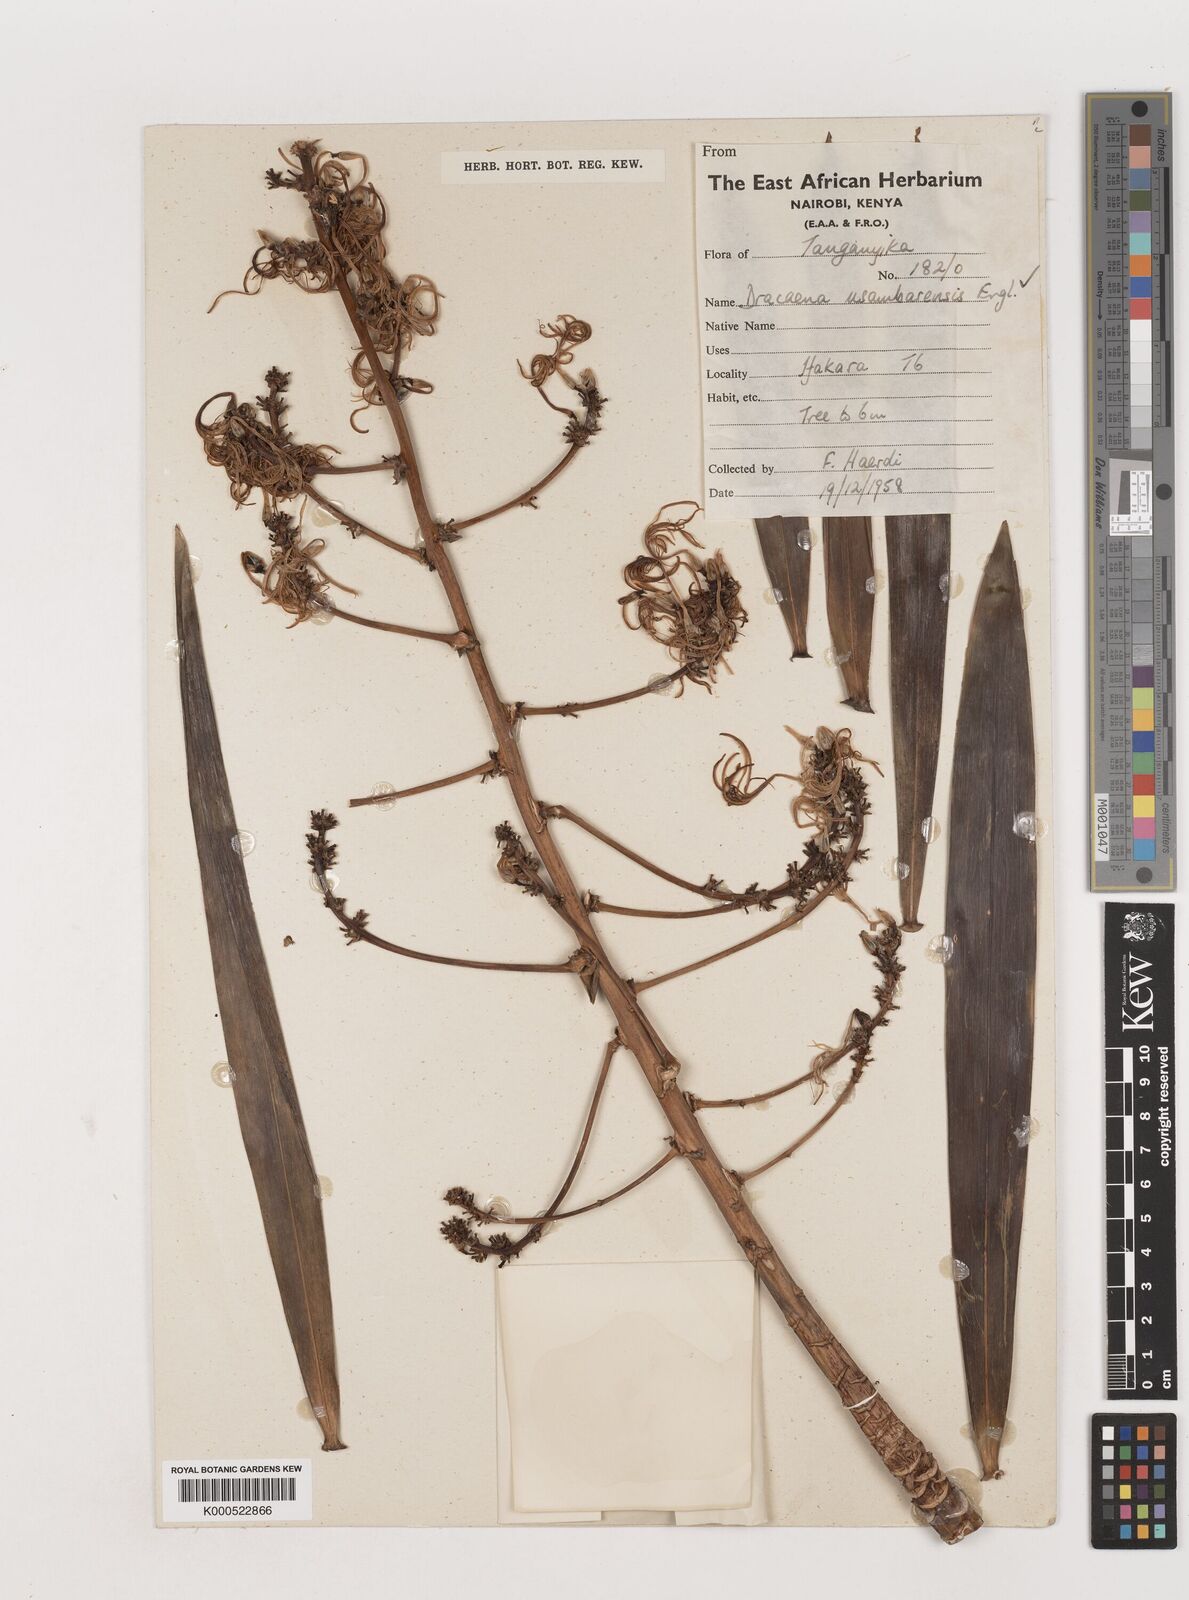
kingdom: Plantae
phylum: Tracheophyta
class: Liliopsida
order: Asparagales
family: Asparagaceae
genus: Dracaena
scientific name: Dracaena usambarensis
